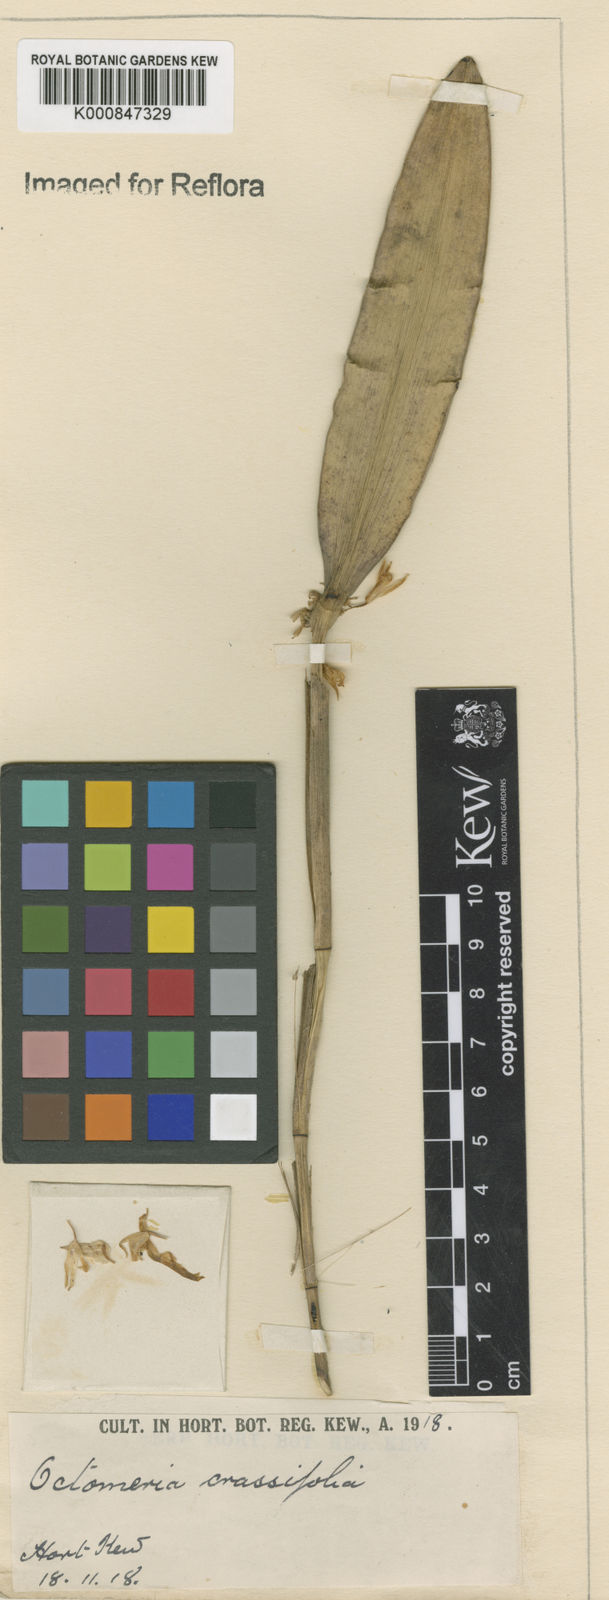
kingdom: Plantae
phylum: Tracheophyta
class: Liliopsida
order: Asparagales
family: Orchidaceae
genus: Octomeria
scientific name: Octomeria crassifolia
